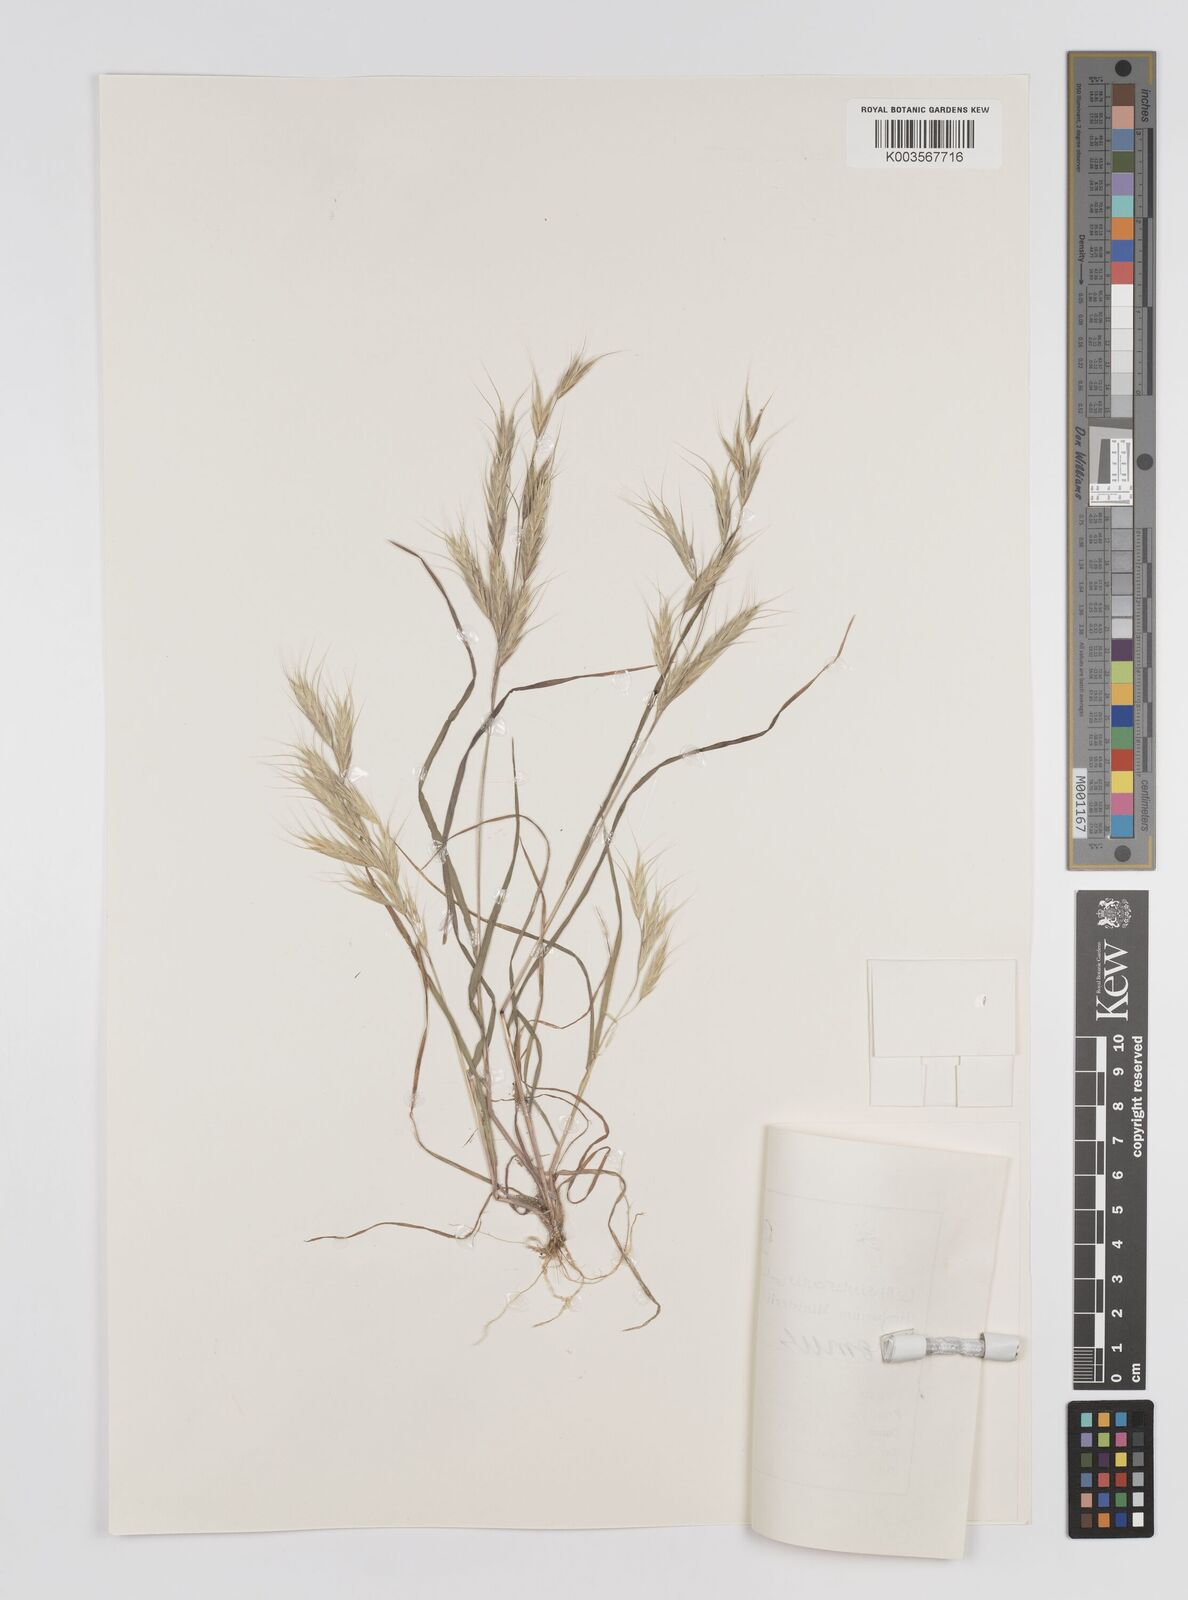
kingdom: Plantae
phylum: Tracheophyta
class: Liliopsida
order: Poales
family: Poaceae
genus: Bromus
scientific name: Bromus
